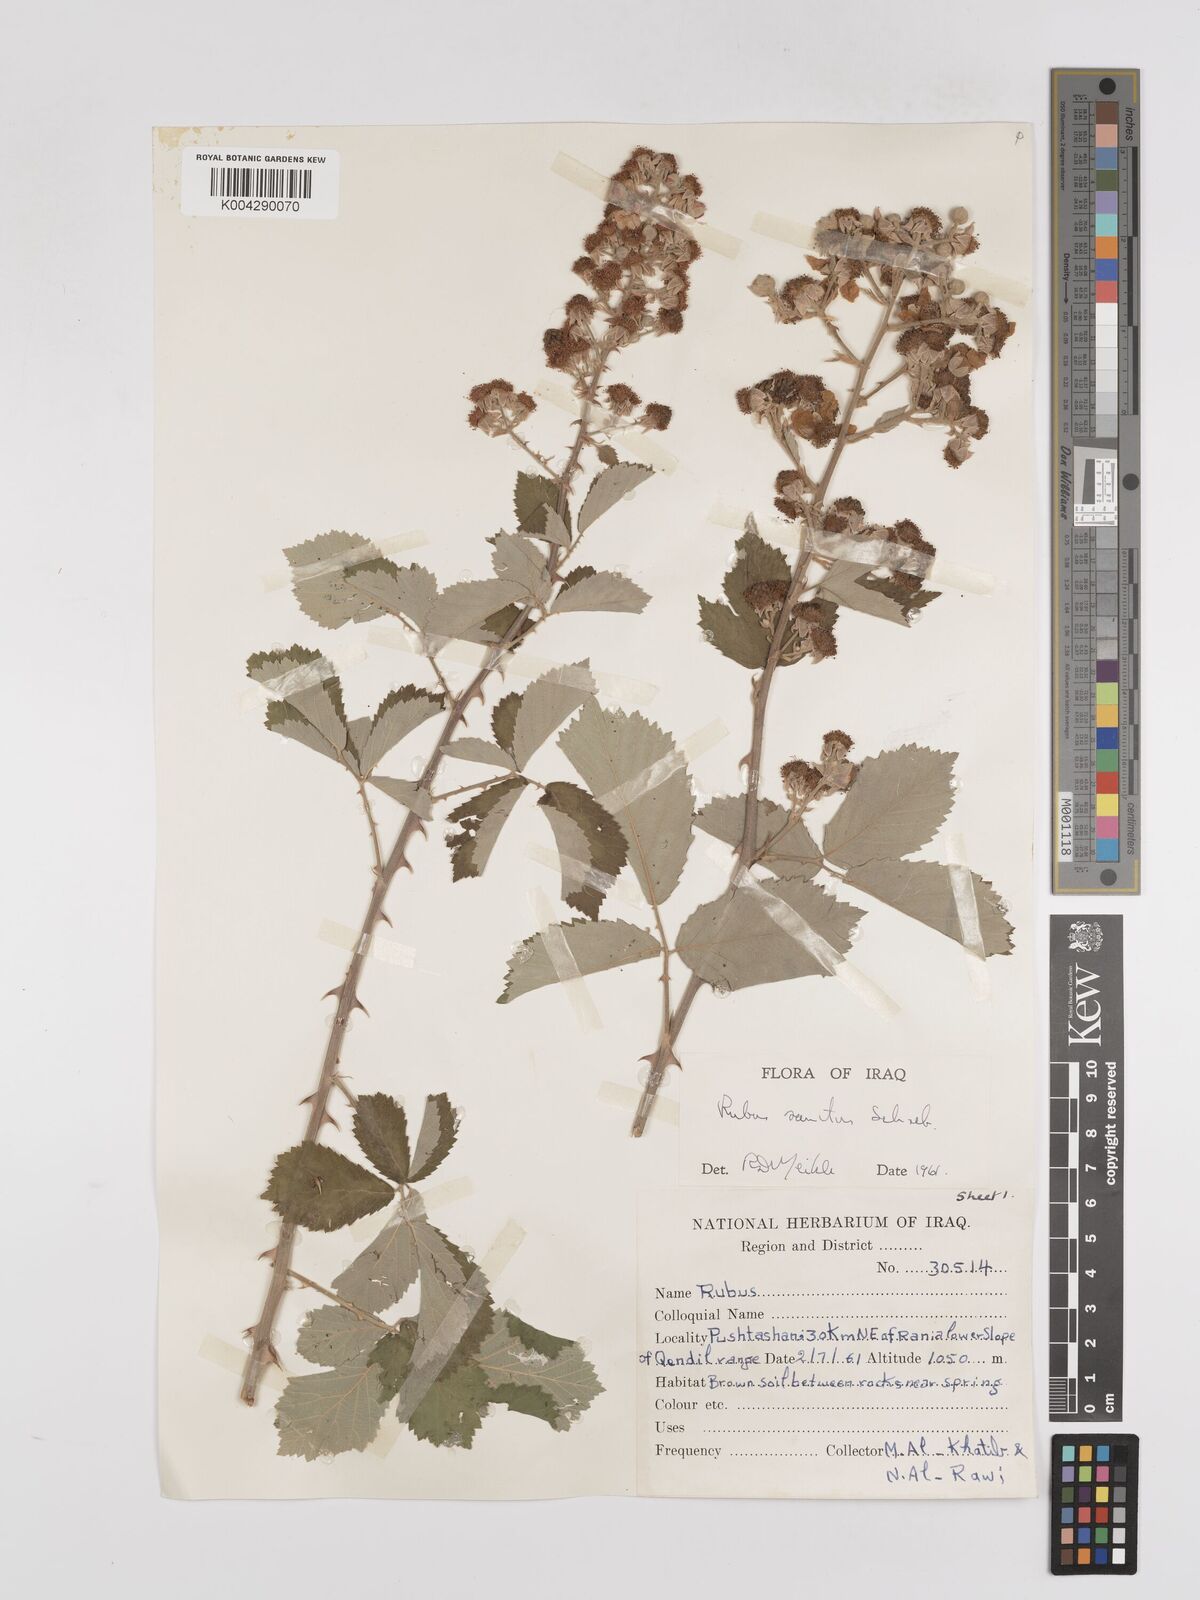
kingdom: Plantae
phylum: Tracheophyta
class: Magnoliopsida
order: Rosales
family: Rosaceae
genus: Rubus
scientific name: Rubus sanctus
